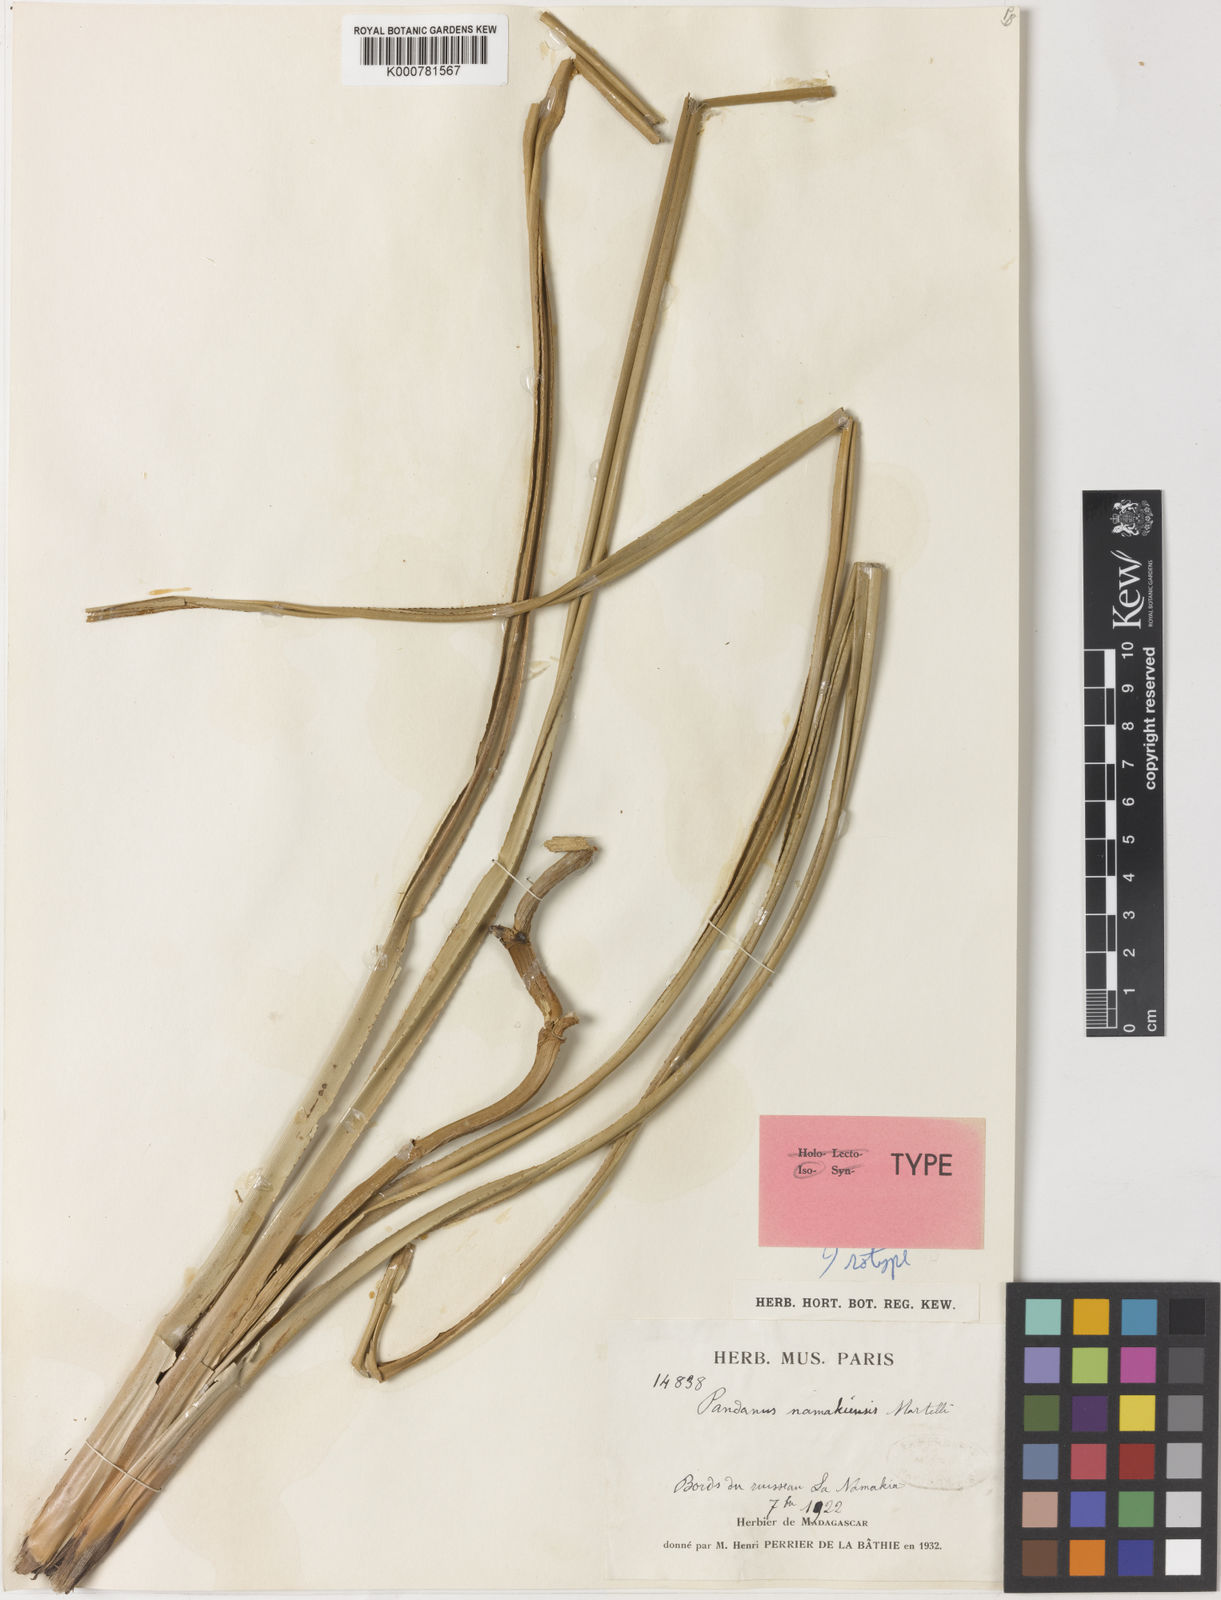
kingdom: Plantae
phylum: Tracheophyta
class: Liliopsida
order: Pandanales
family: Pandanaceae
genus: Pandanus
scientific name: Pandanus namakiensis
